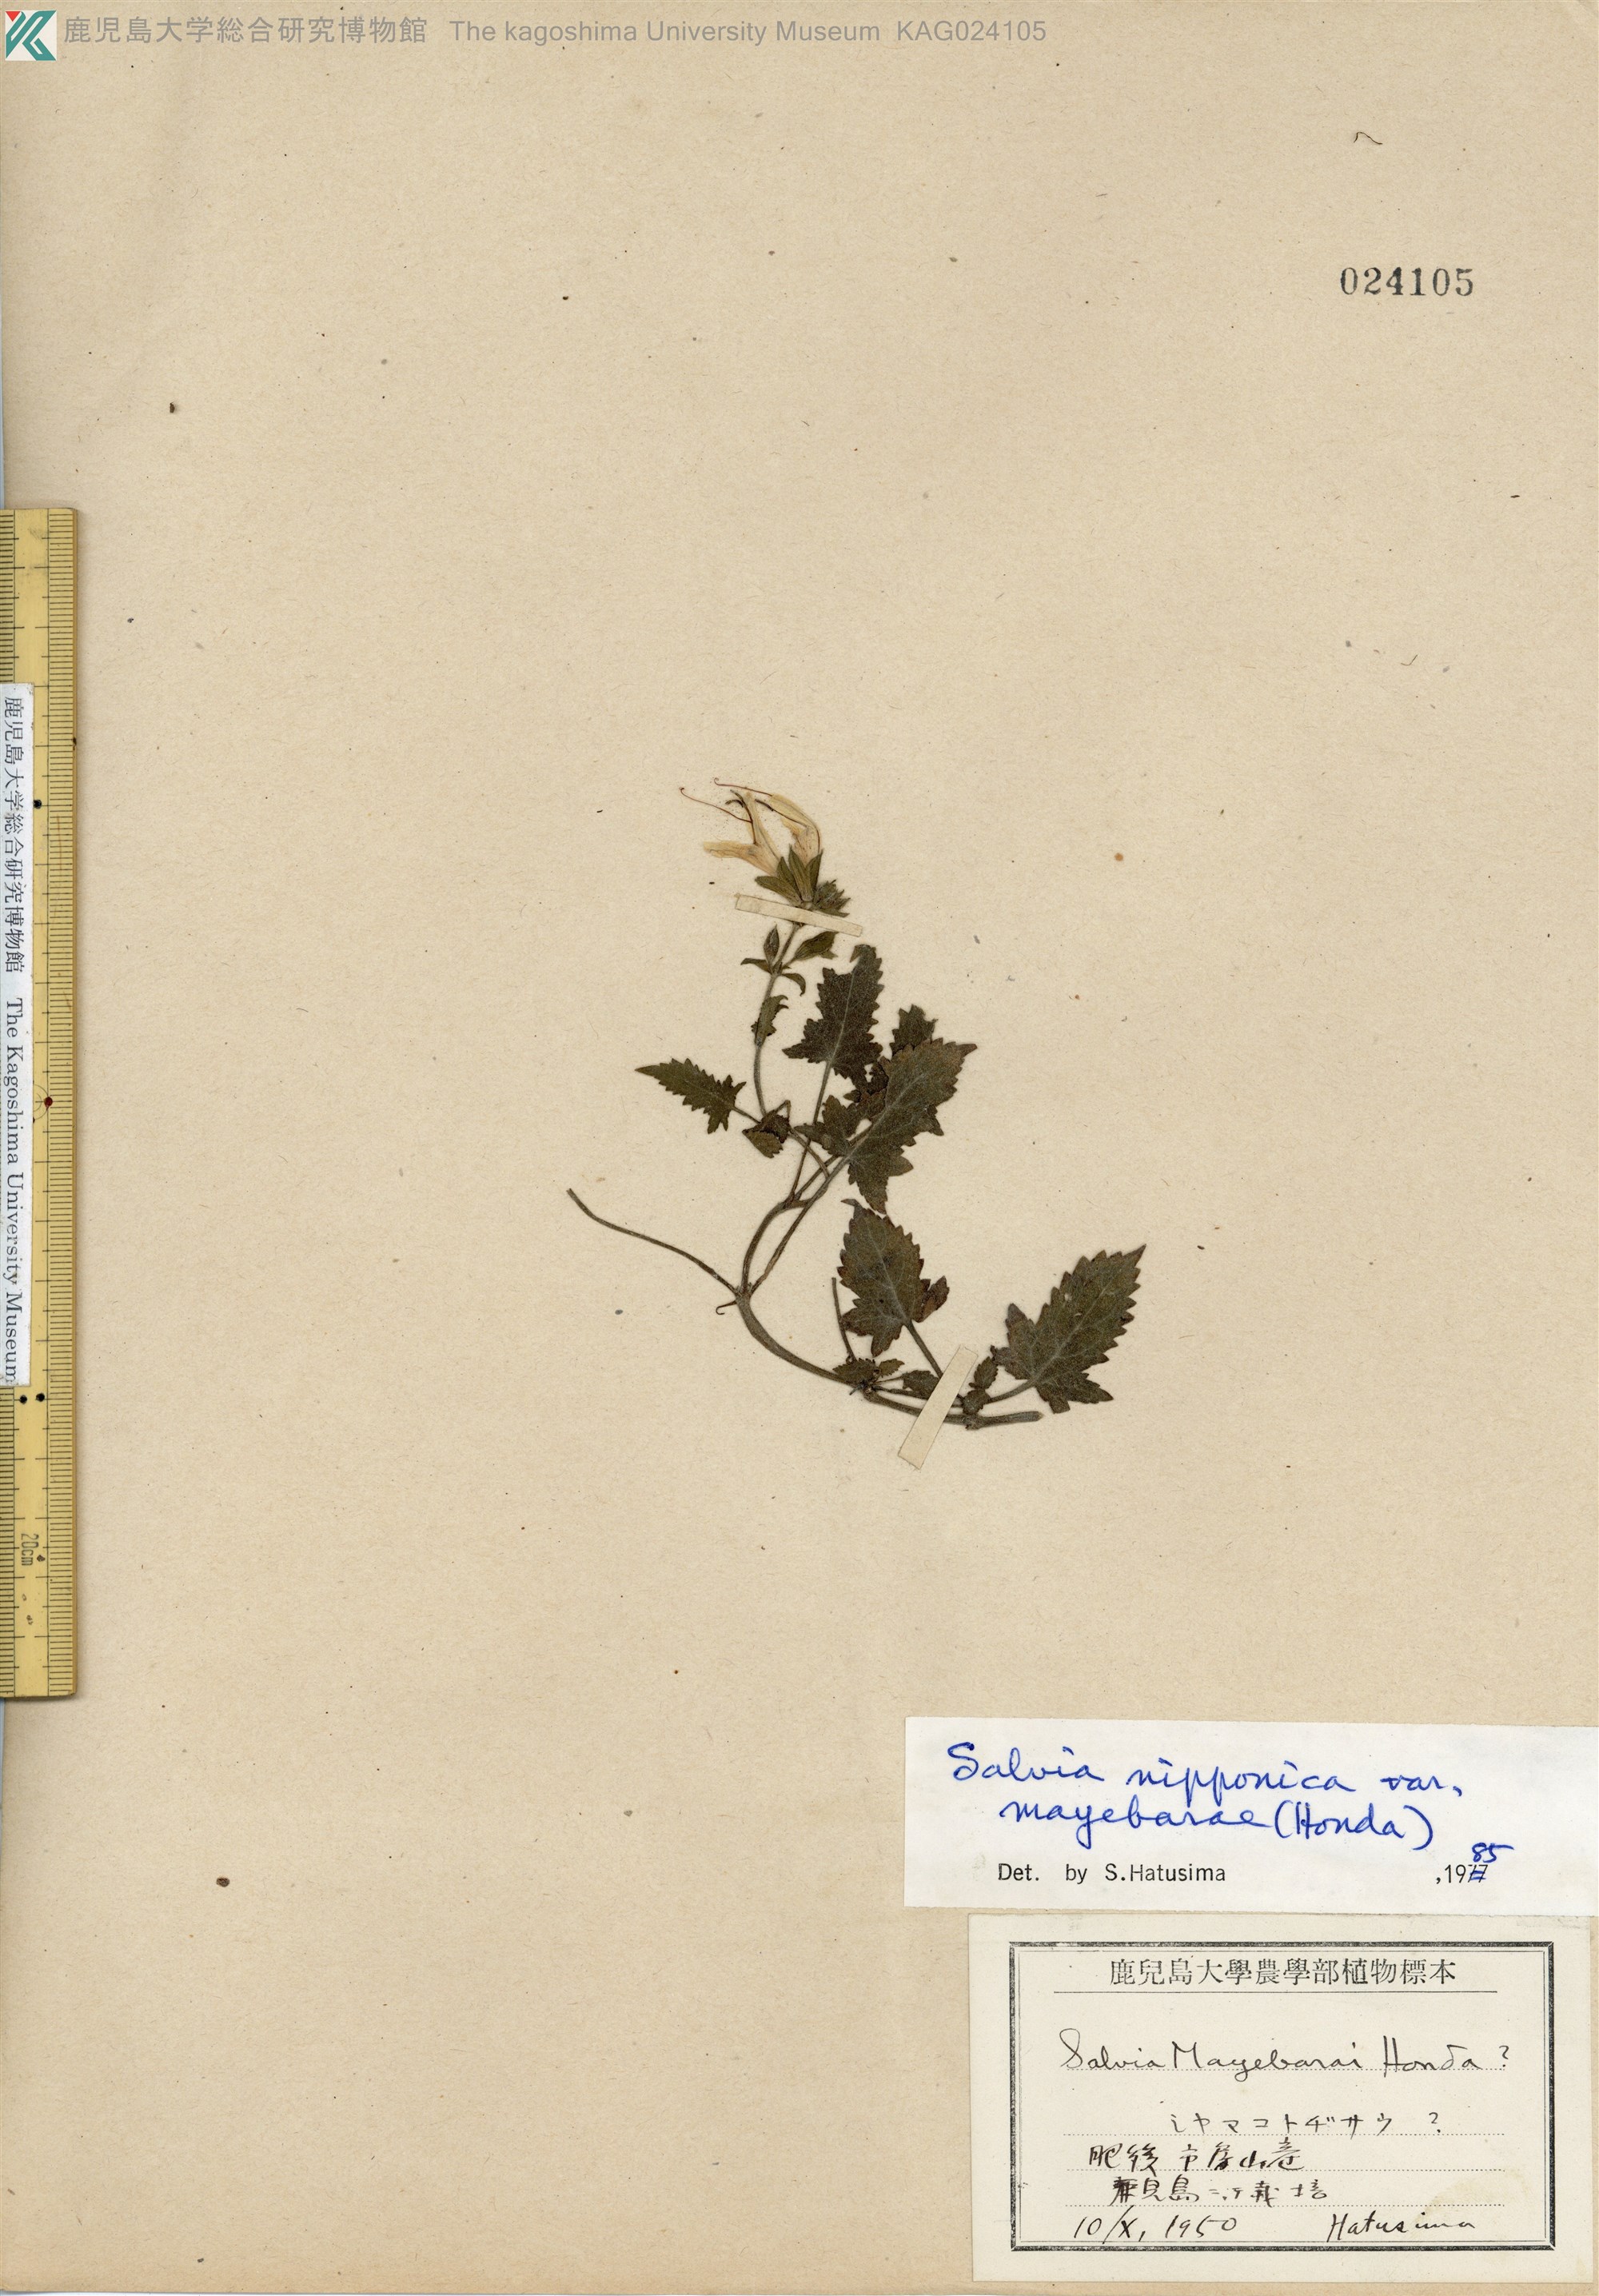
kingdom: Plantae
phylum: Tracheophyta
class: Magnoliopsida
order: Lamiales
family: Lamiaceae
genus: Salvia
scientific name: Salvia nipponica
